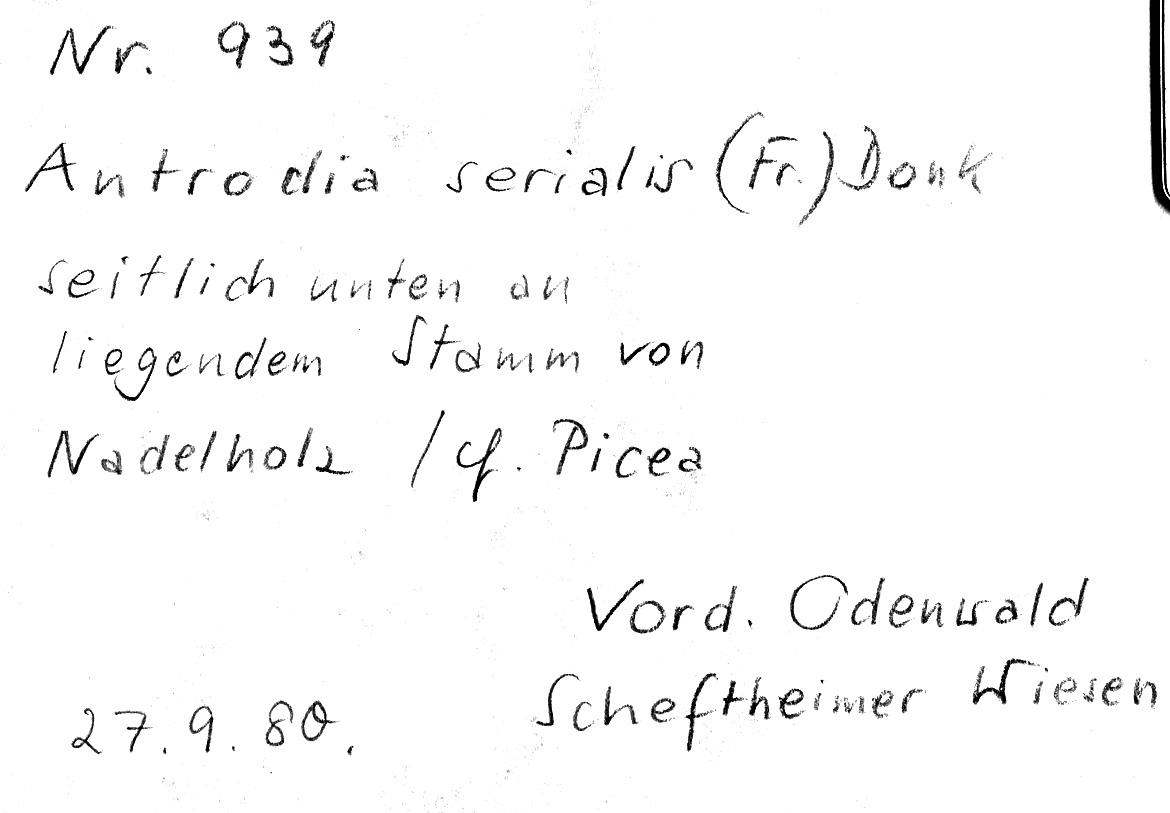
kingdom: Plantae
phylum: Tracheophyta
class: Pinopsida
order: Pinales
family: Pinaceae
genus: Picea
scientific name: Picea
